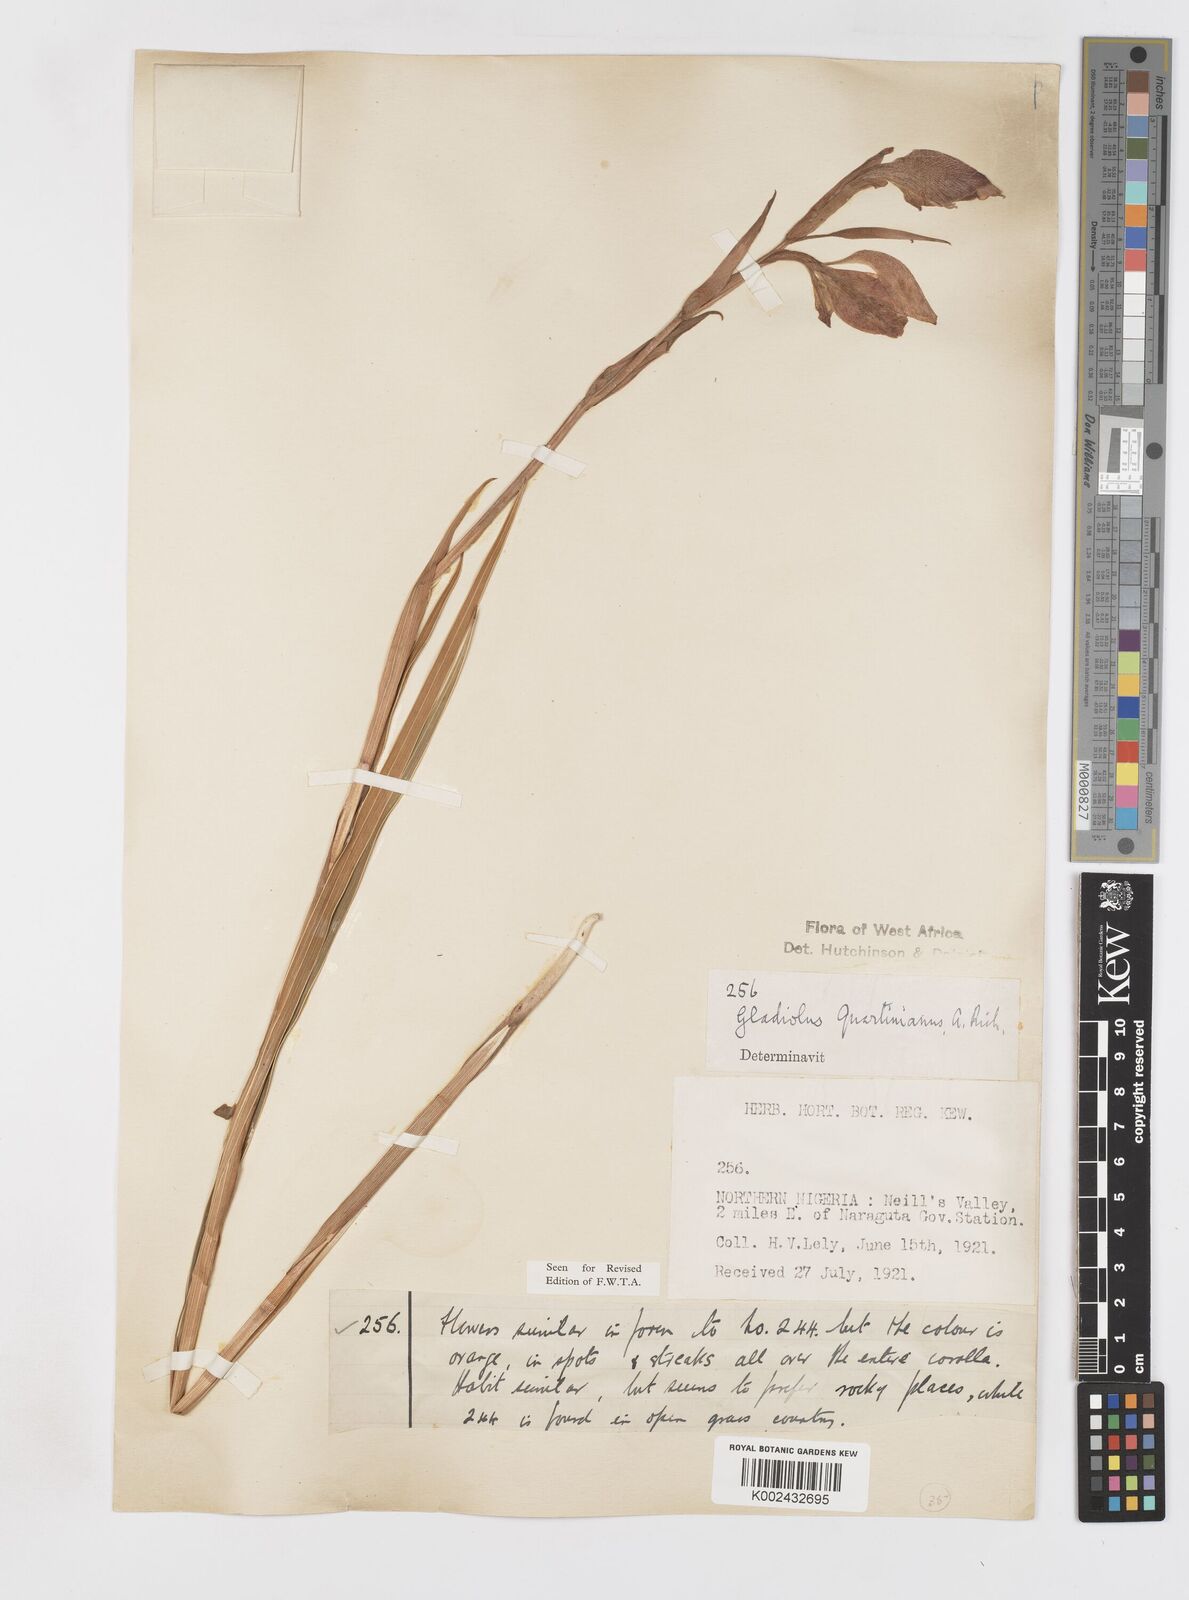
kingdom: Plantae
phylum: Tracheophyta
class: Liliopsida
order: Asparagales
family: Iridaceae
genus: Gladiolus
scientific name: Gladiolus dalenii
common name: Cornflag
